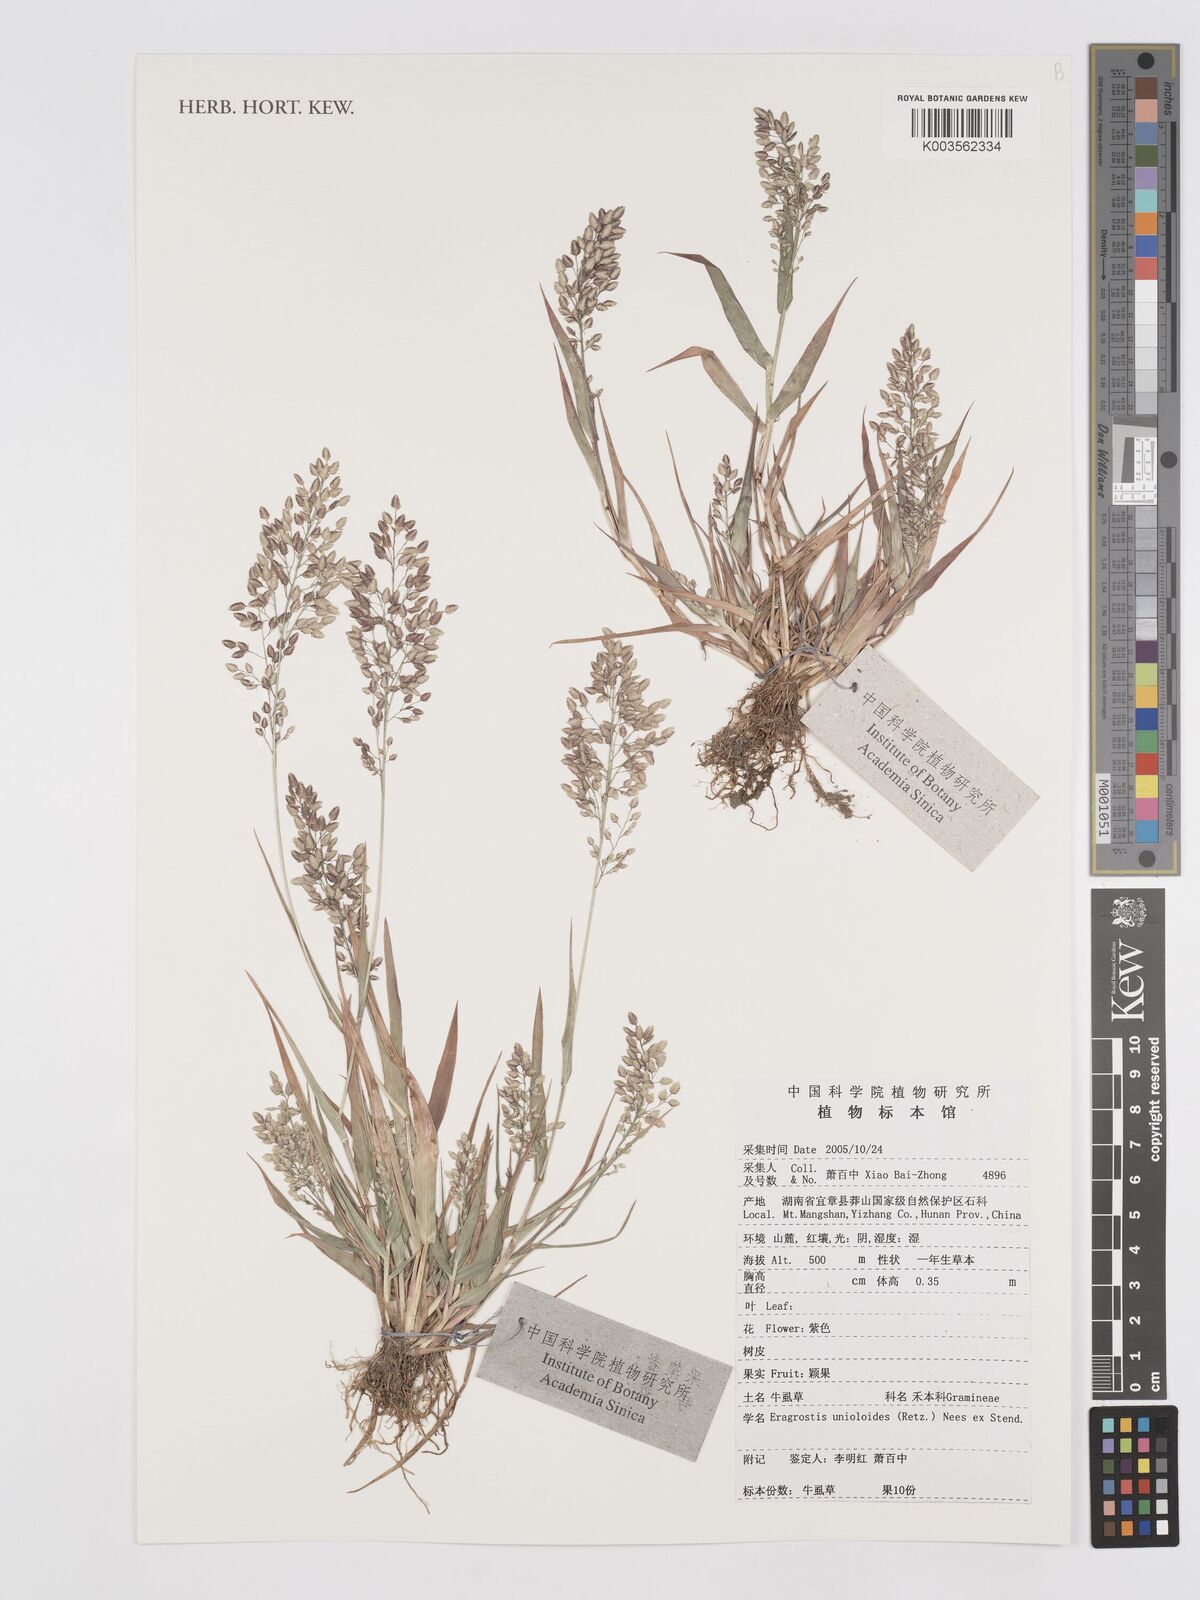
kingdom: Plantae
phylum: Tracheophyta
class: Liliopsida
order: Poales
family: Poaceae
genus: Eragrostis
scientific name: Eragrostis unioloides
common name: Chinese lovegrass
